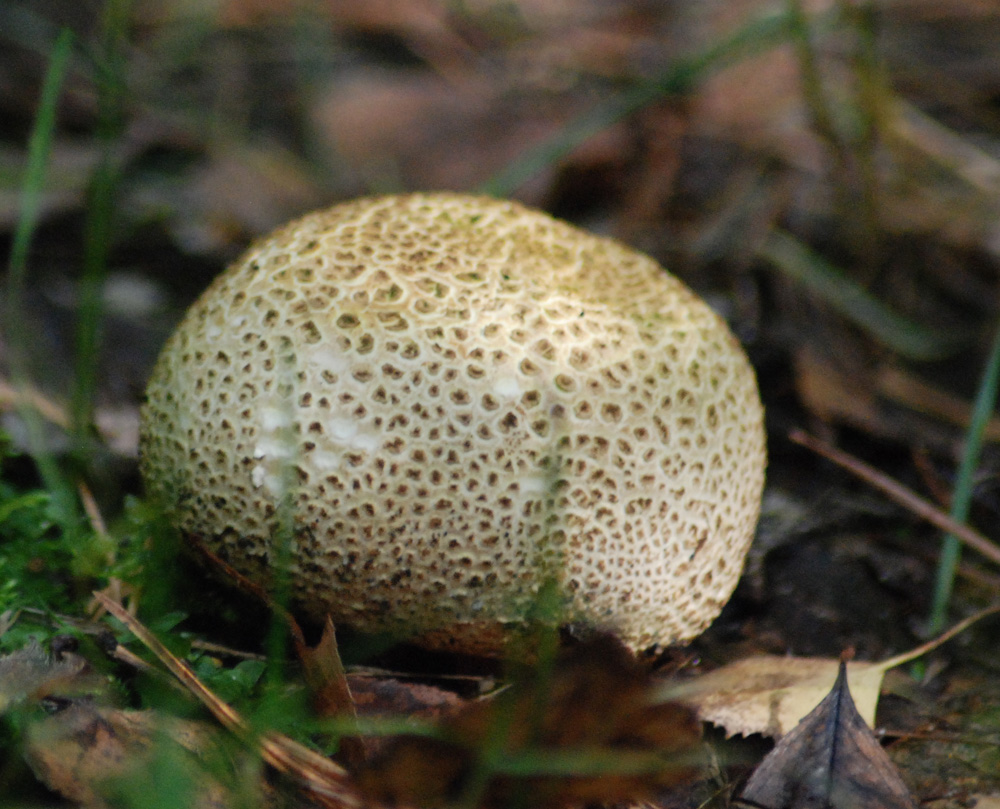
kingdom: Fungi
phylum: Basidiomycota
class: Agaricomycetes
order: Boletales
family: Sclerodermataceae
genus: Scleroderma
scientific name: Scleroderma
